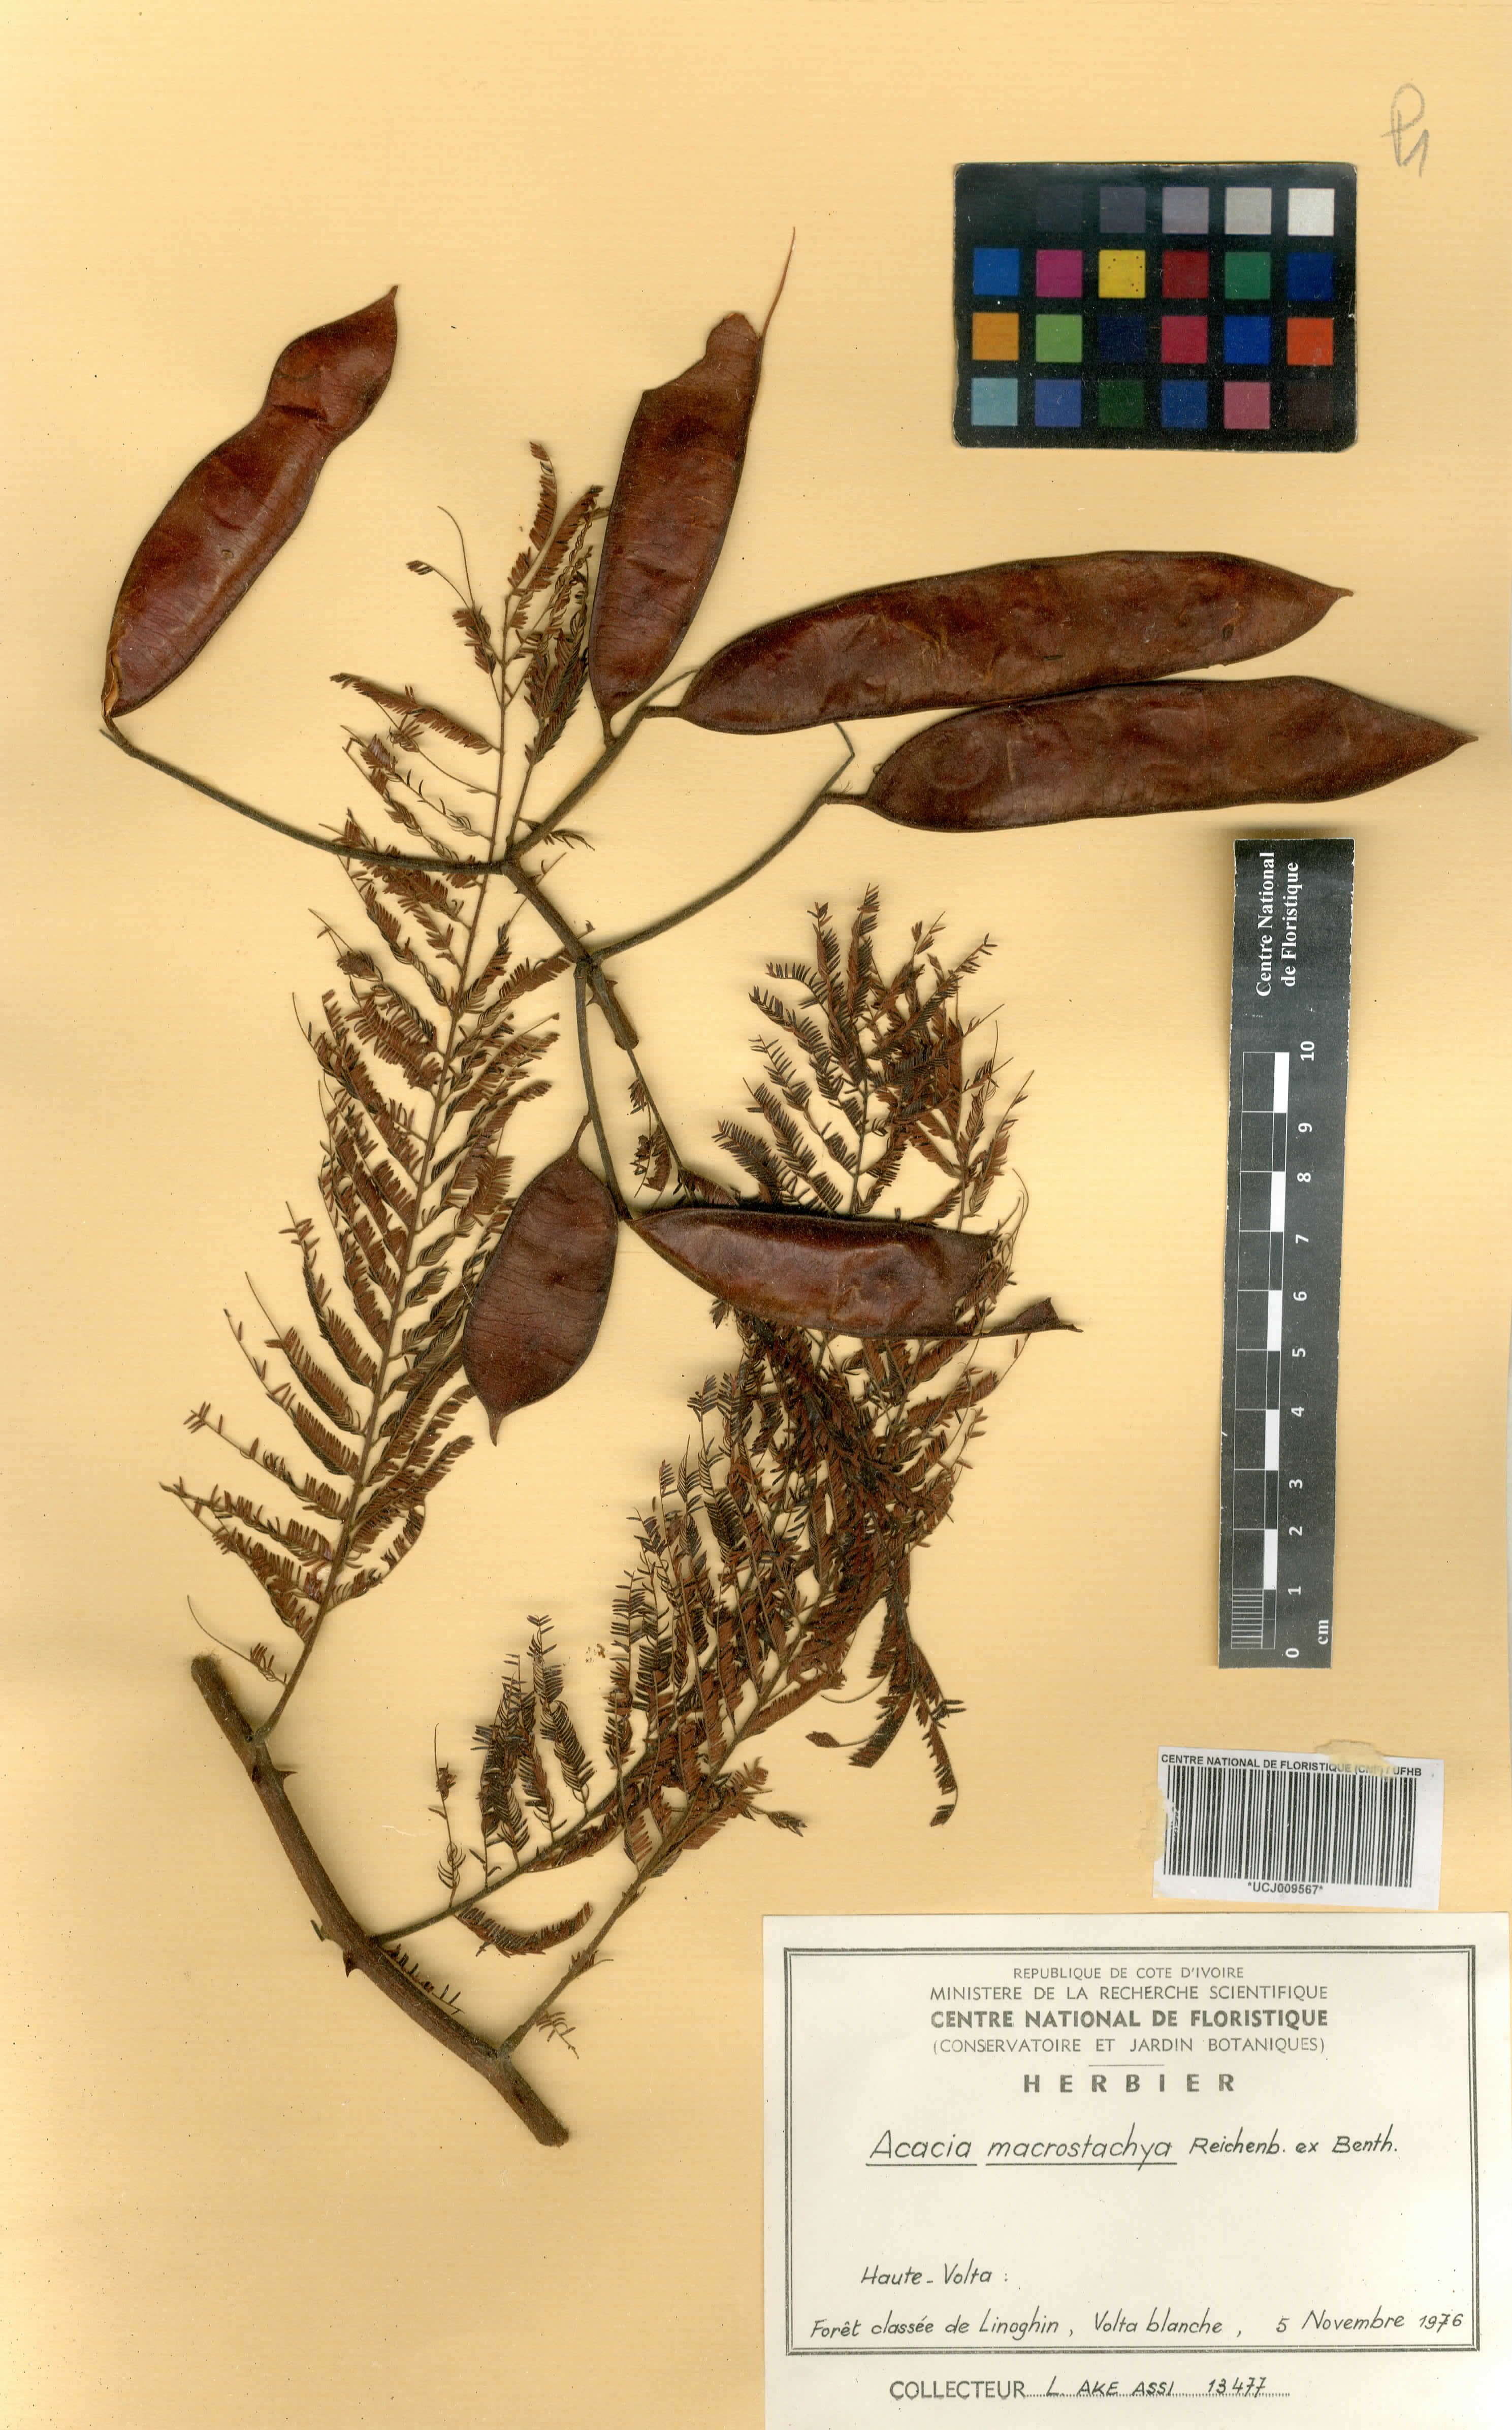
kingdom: Plantae
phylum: Tracheophyta
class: Magnoliopsida
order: Fabales
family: Fabaceae
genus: Senegalia
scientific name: Senegalia macrostachya
